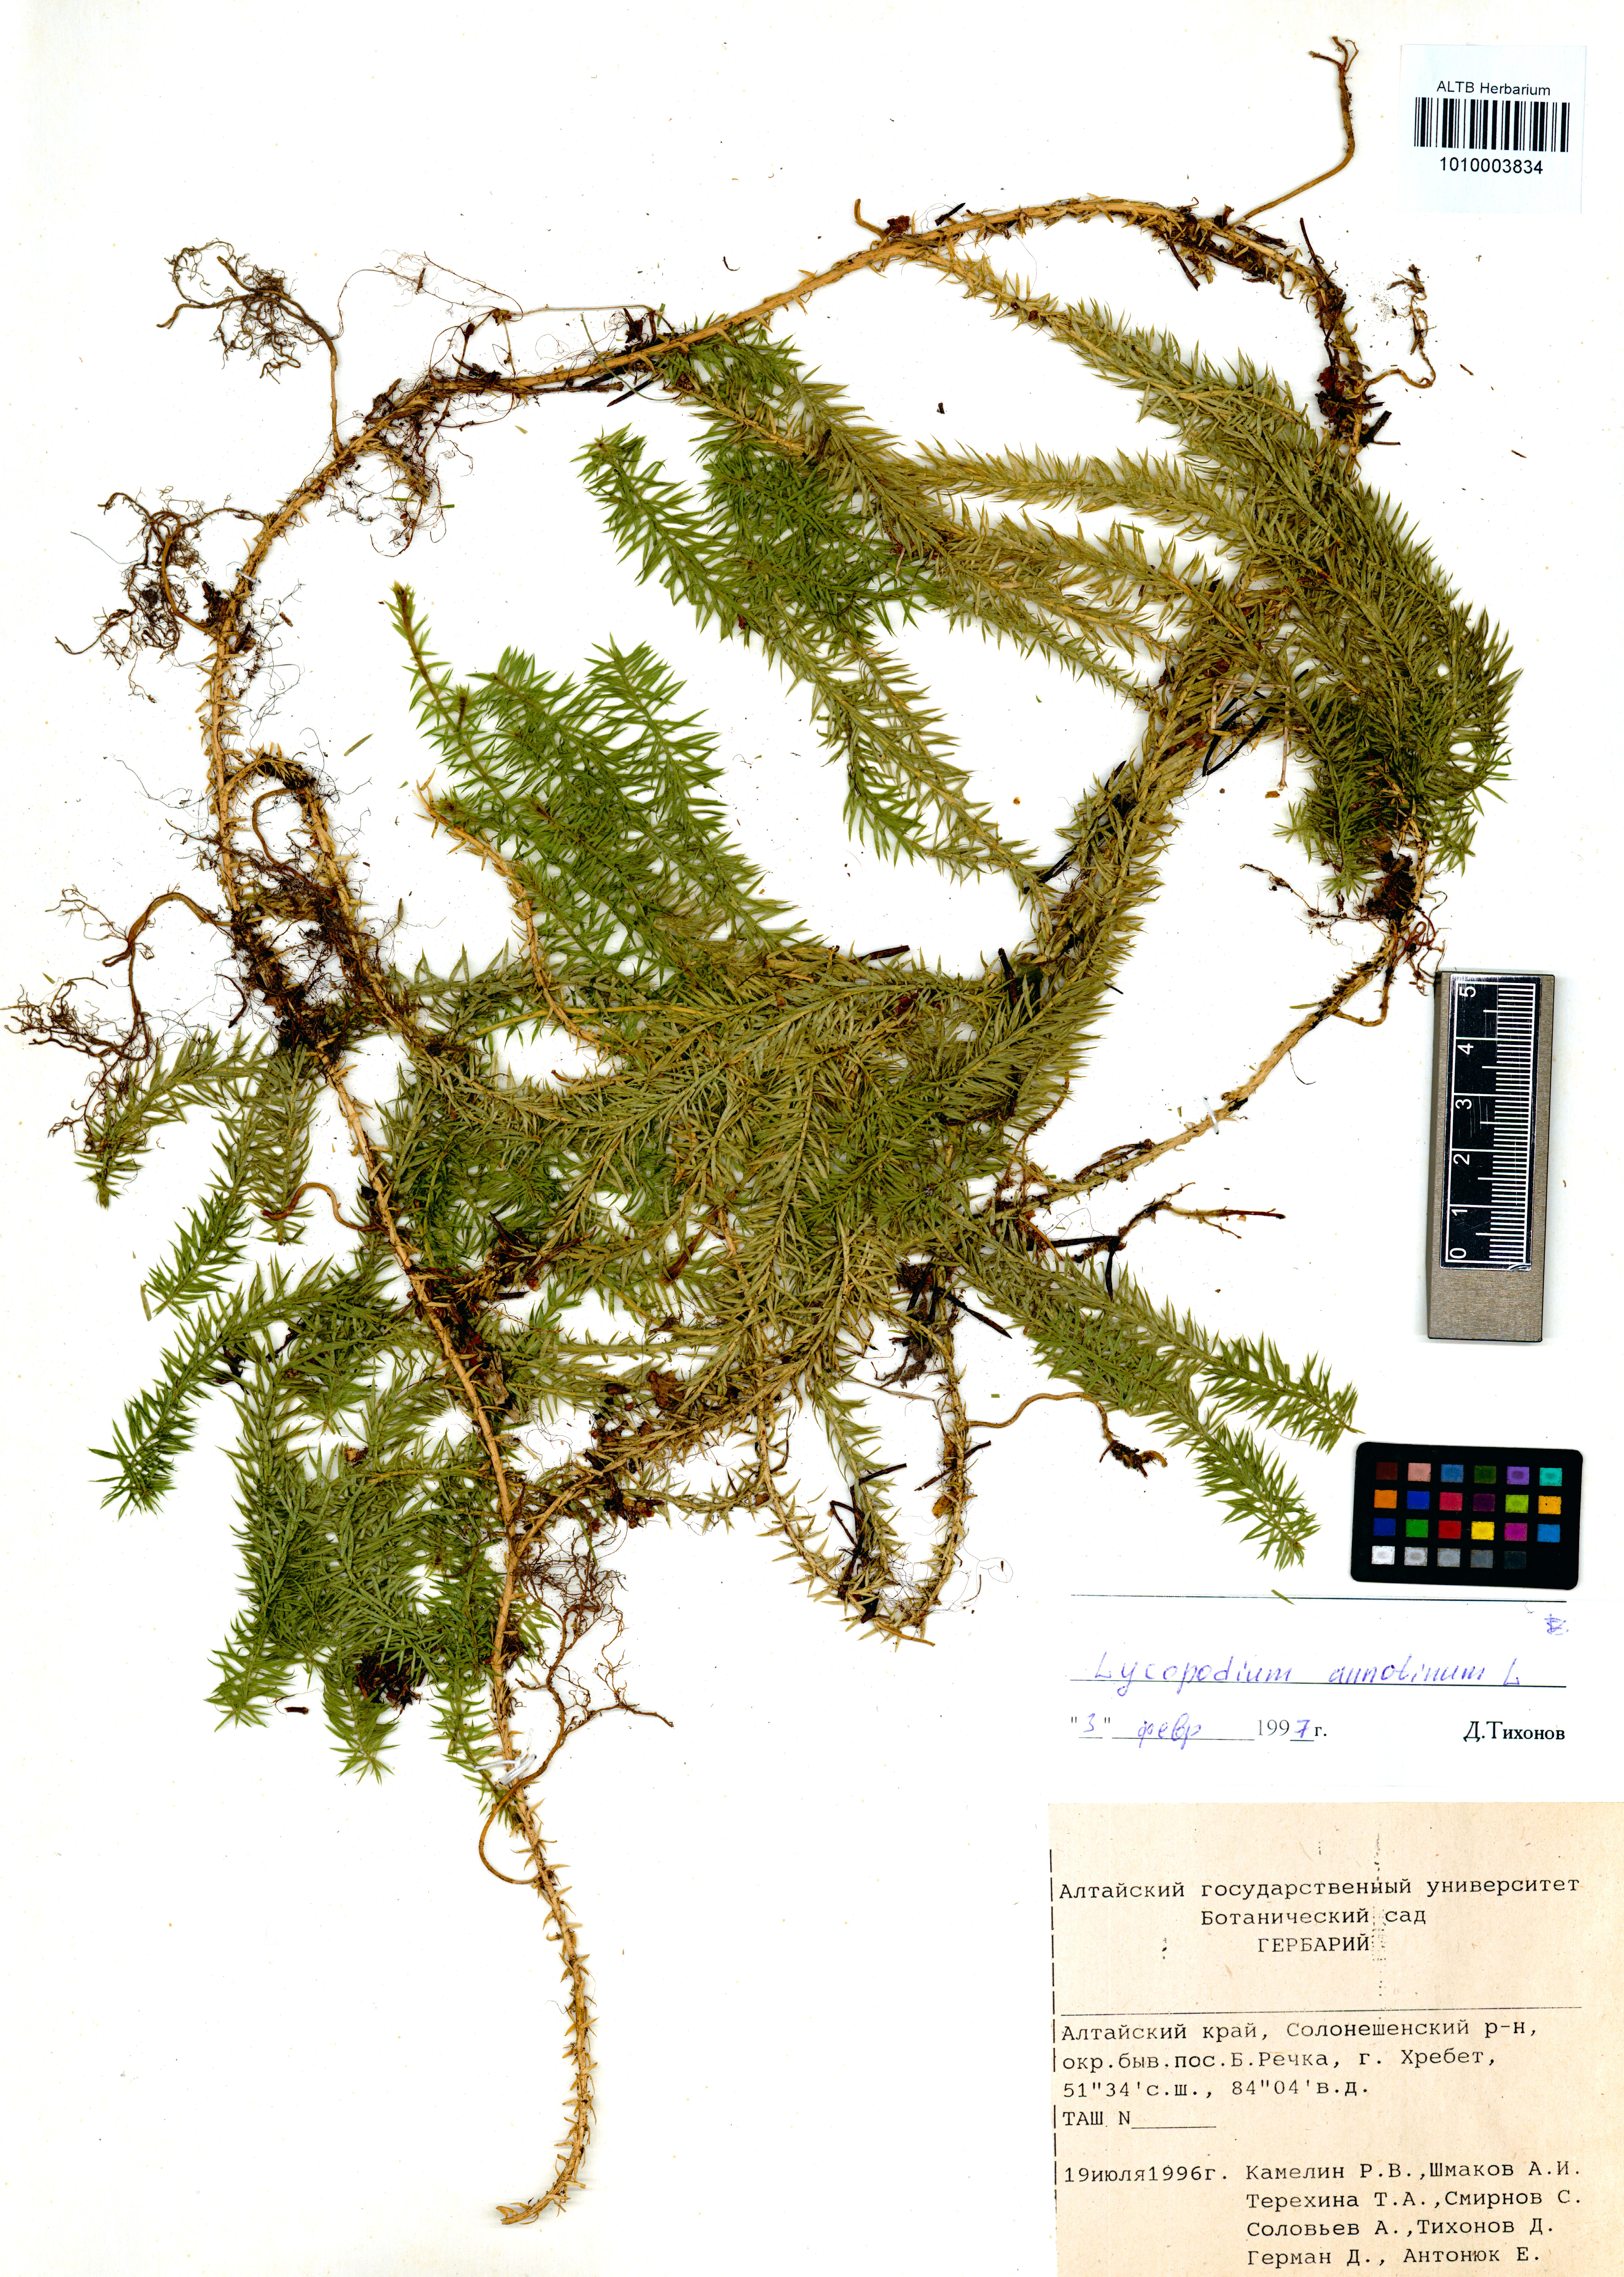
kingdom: Plantae
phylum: Tracheophyta
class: Lycopodiopsida
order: Lycopodiales
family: Lycopodiaceae
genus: Spinulum
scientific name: Spinulum annotinum
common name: Interrupted club-moss
